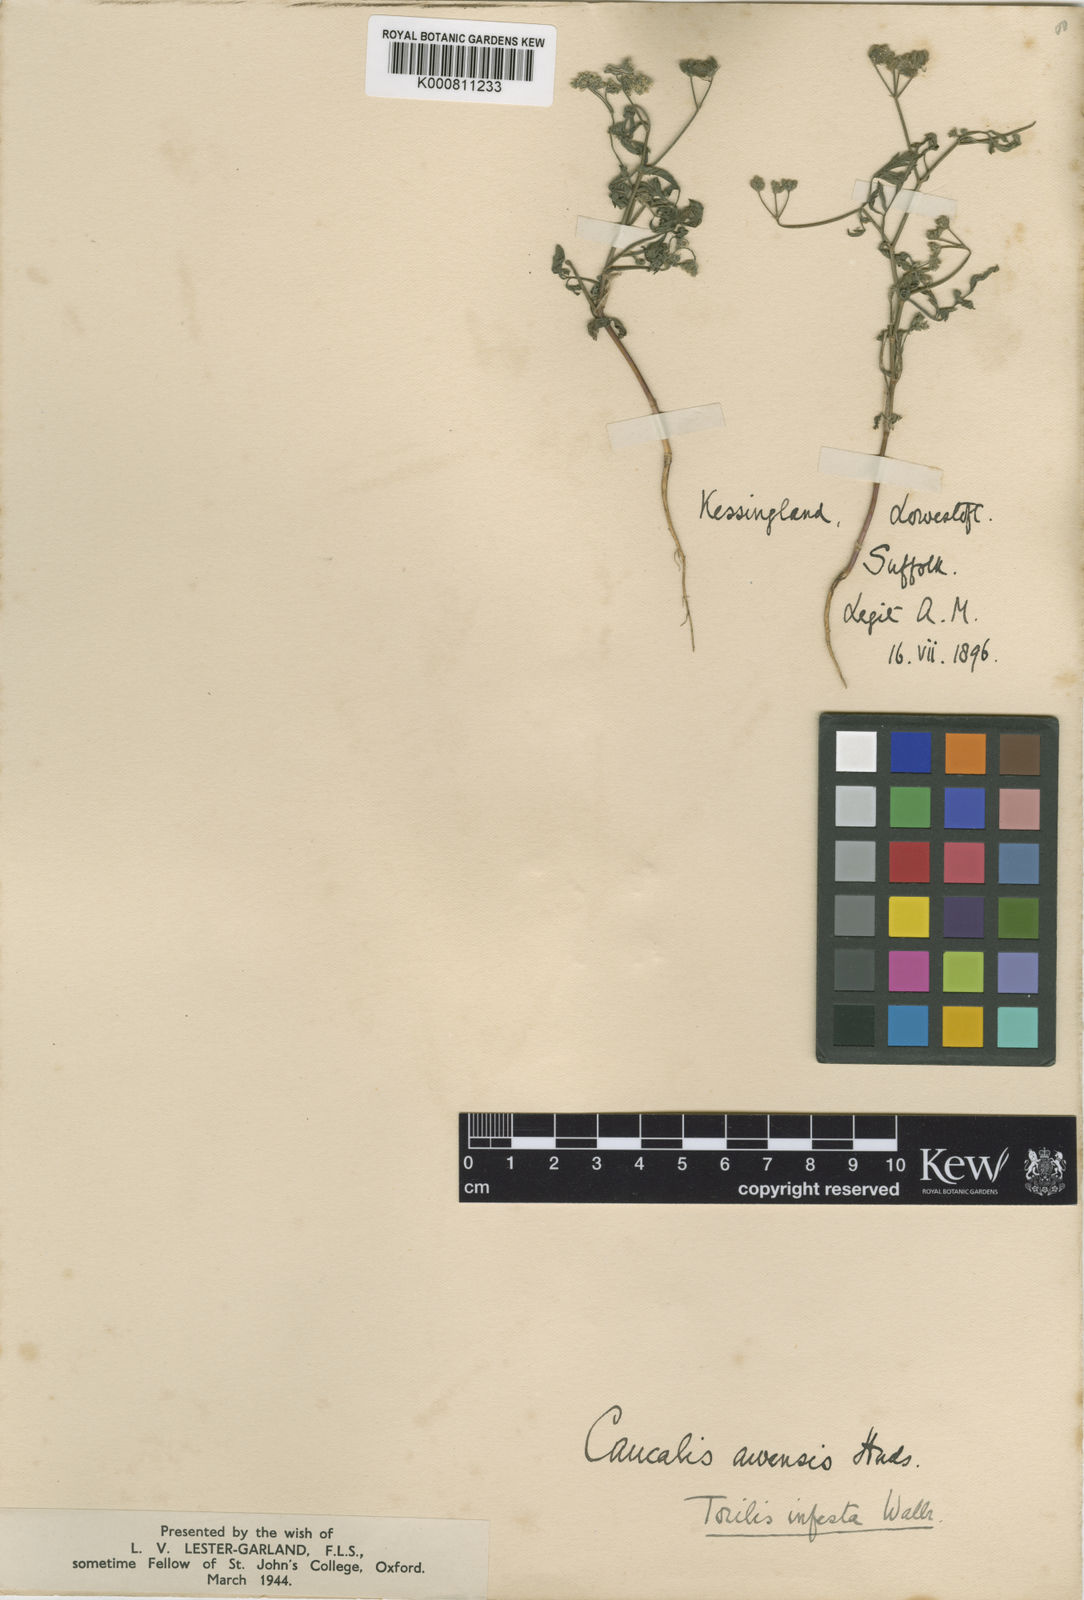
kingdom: Plantae
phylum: Tracheophyta
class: Magnoliopsida
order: Apiales
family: Apiaceae
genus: Torilis
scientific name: Torilis arvensis
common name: Spreading hedge-parsley
